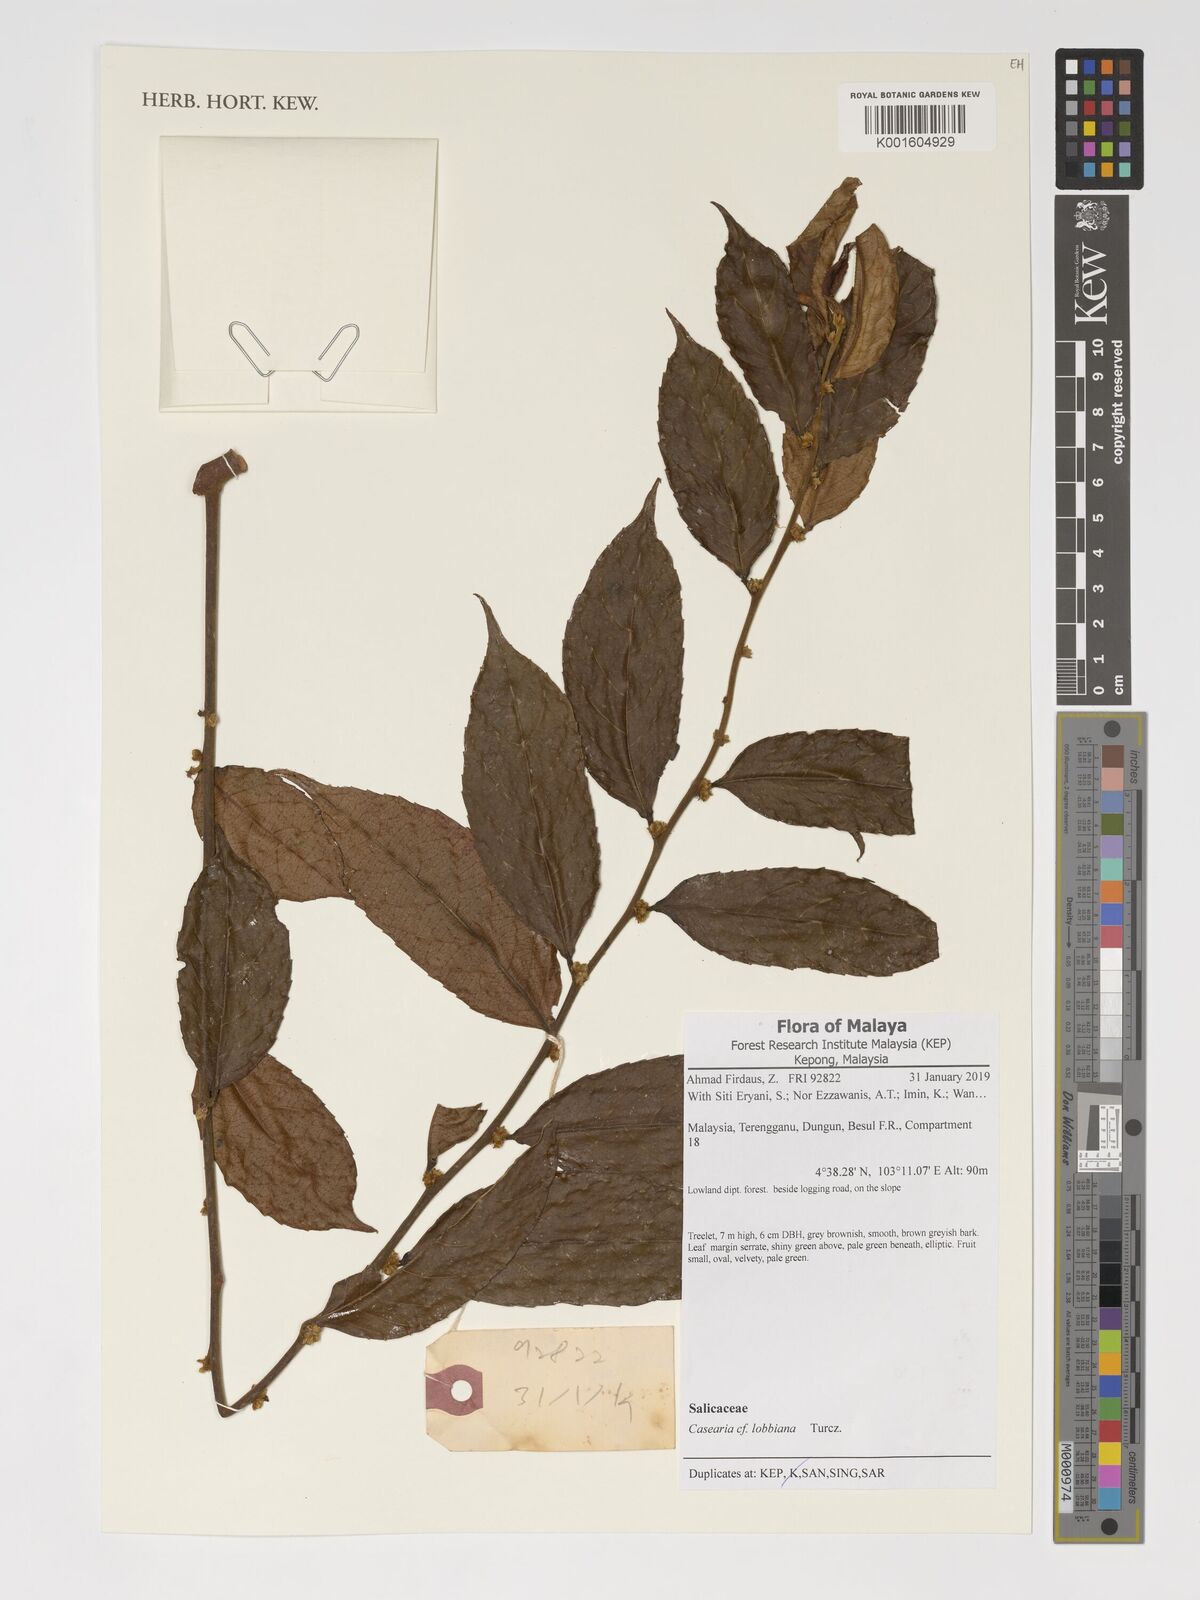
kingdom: Plantae
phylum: Tracheophyta
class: Magnoliopsida
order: Malpighiales
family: Salicaceae
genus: Casearia
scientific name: Casearia lobbiana
